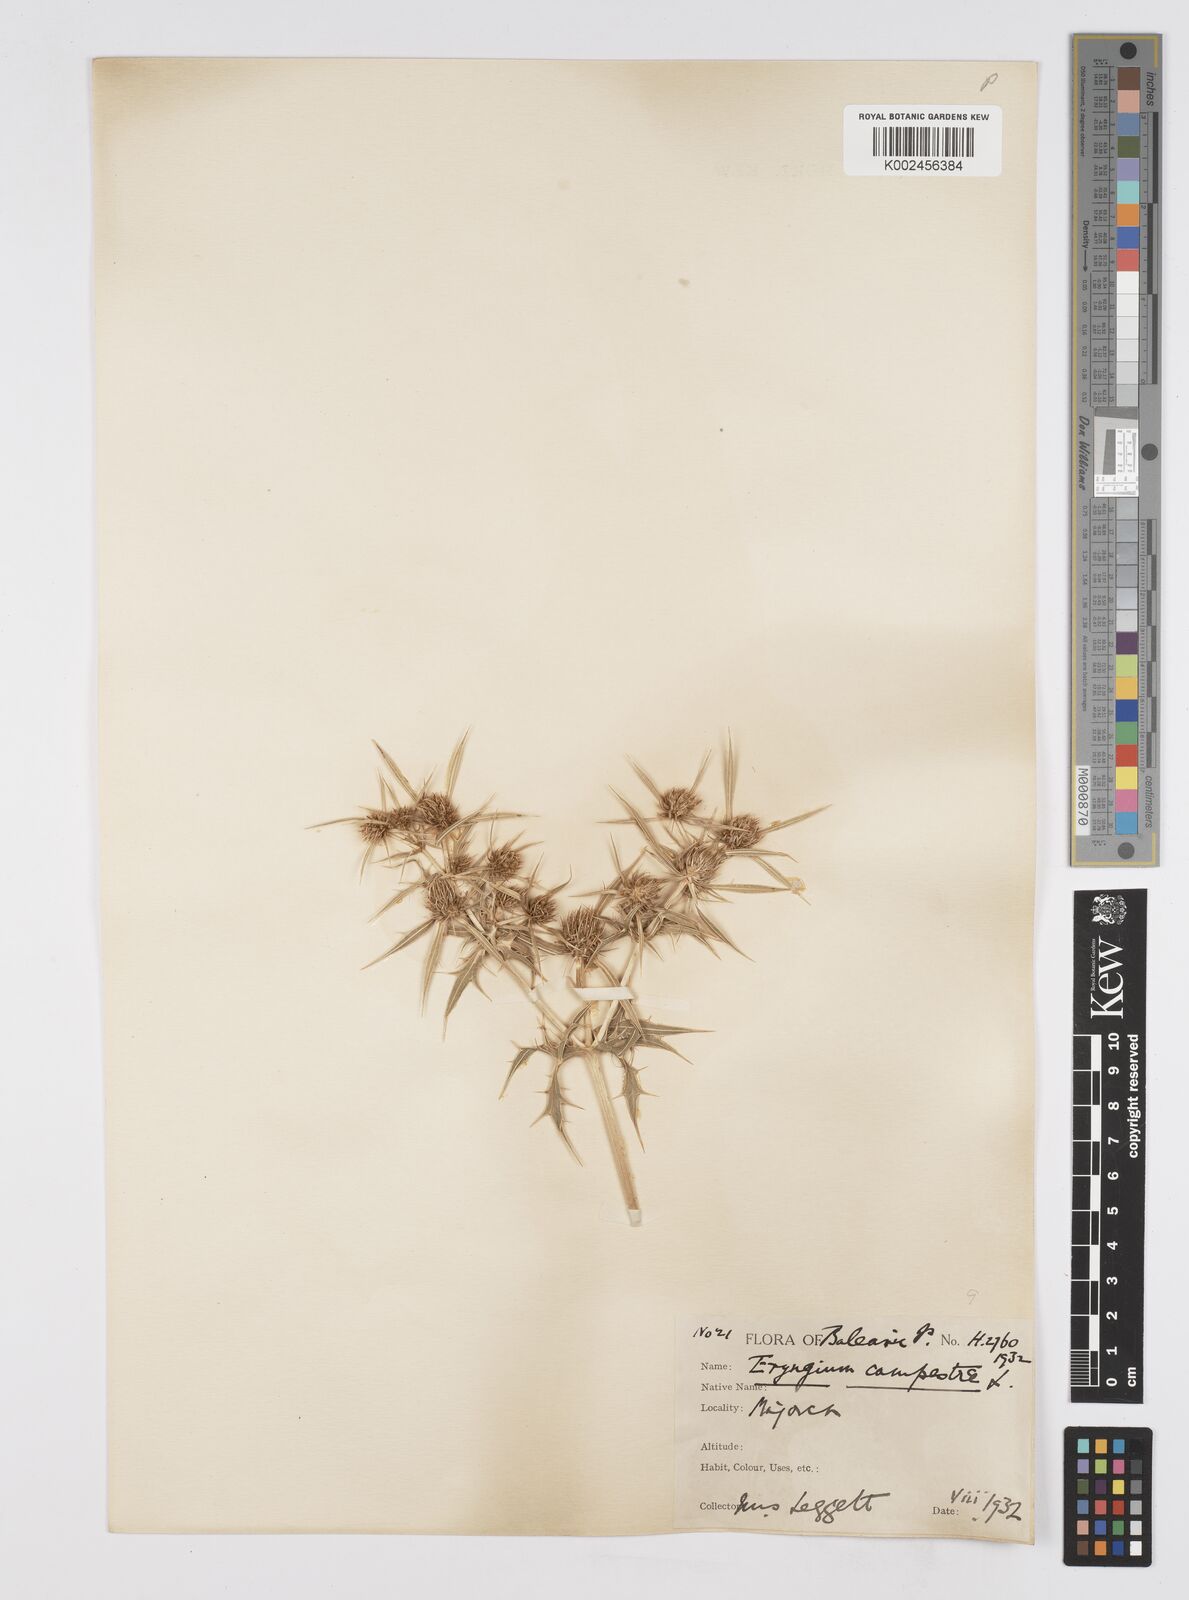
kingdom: Plantae
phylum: Tracheophyta
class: Magnoliopsida
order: Apiales
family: Apiaceae
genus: Eryngium
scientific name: Eryngium campestre
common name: Field eryngo
